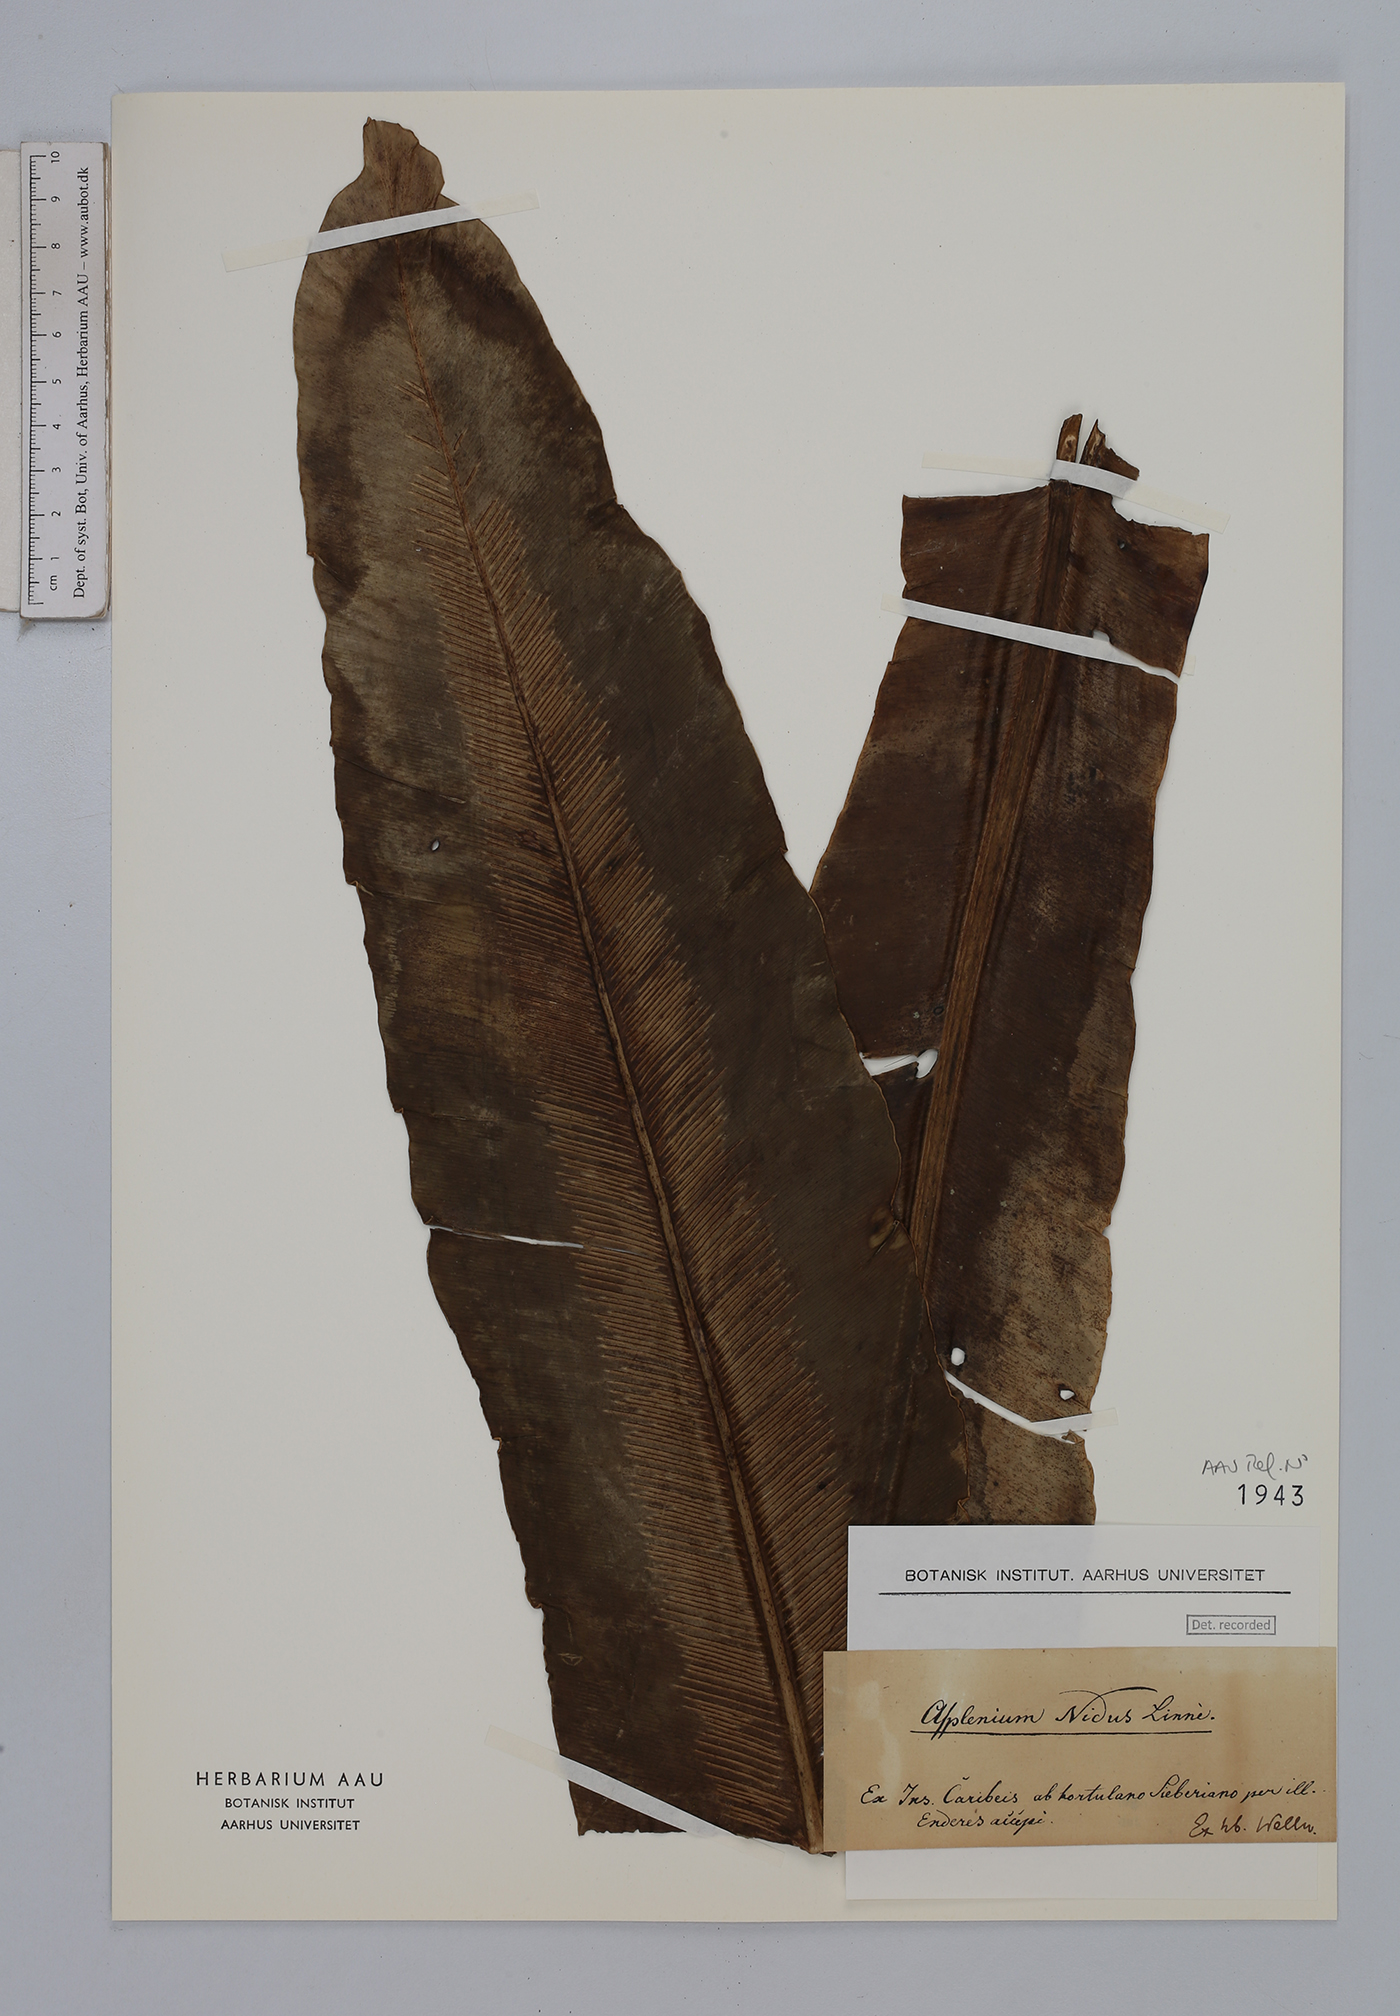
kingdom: Plantae
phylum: Tracheophyta
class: Polypodiopsida
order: Polypodiales
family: Aspleniaceae
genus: Asplenium
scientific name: Asplenium nidus
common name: Bird's-nest fern
